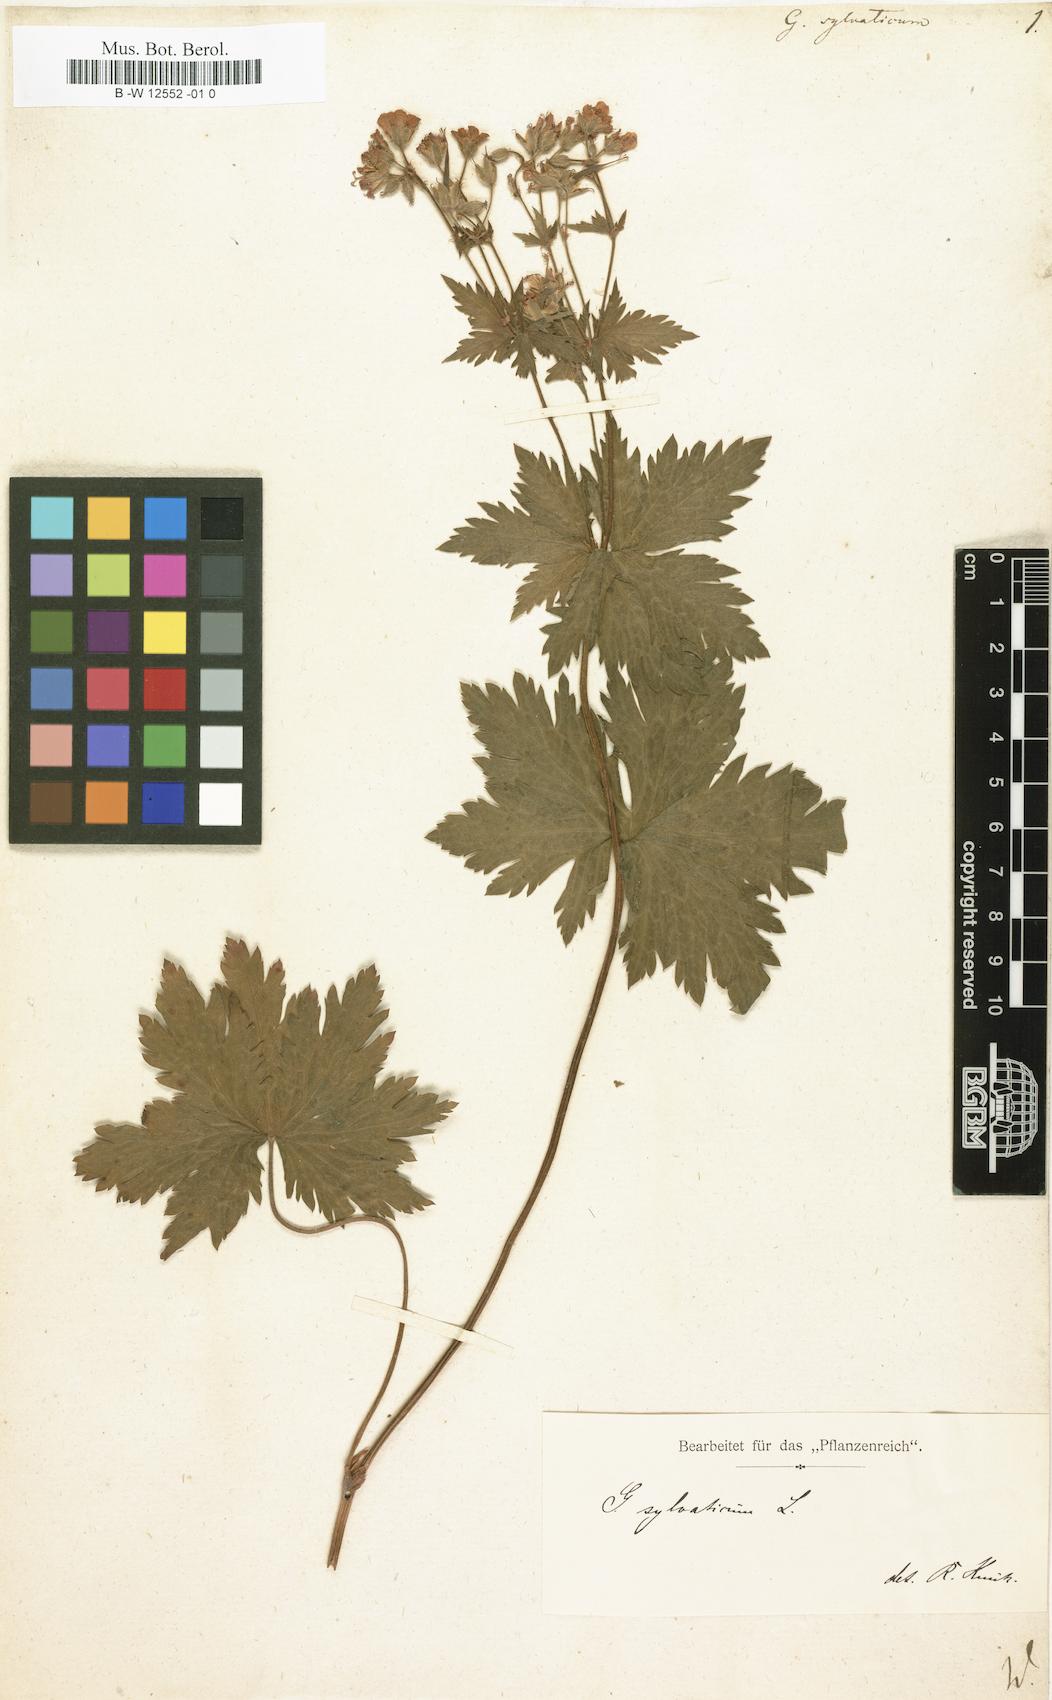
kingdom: Plantae
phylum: Tracheophyta
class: Magnoliopsida
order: Geraniales
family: Geraniaceae
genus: Geranium
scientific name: Geranium sylvaticum
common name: Wood crane's-bill
